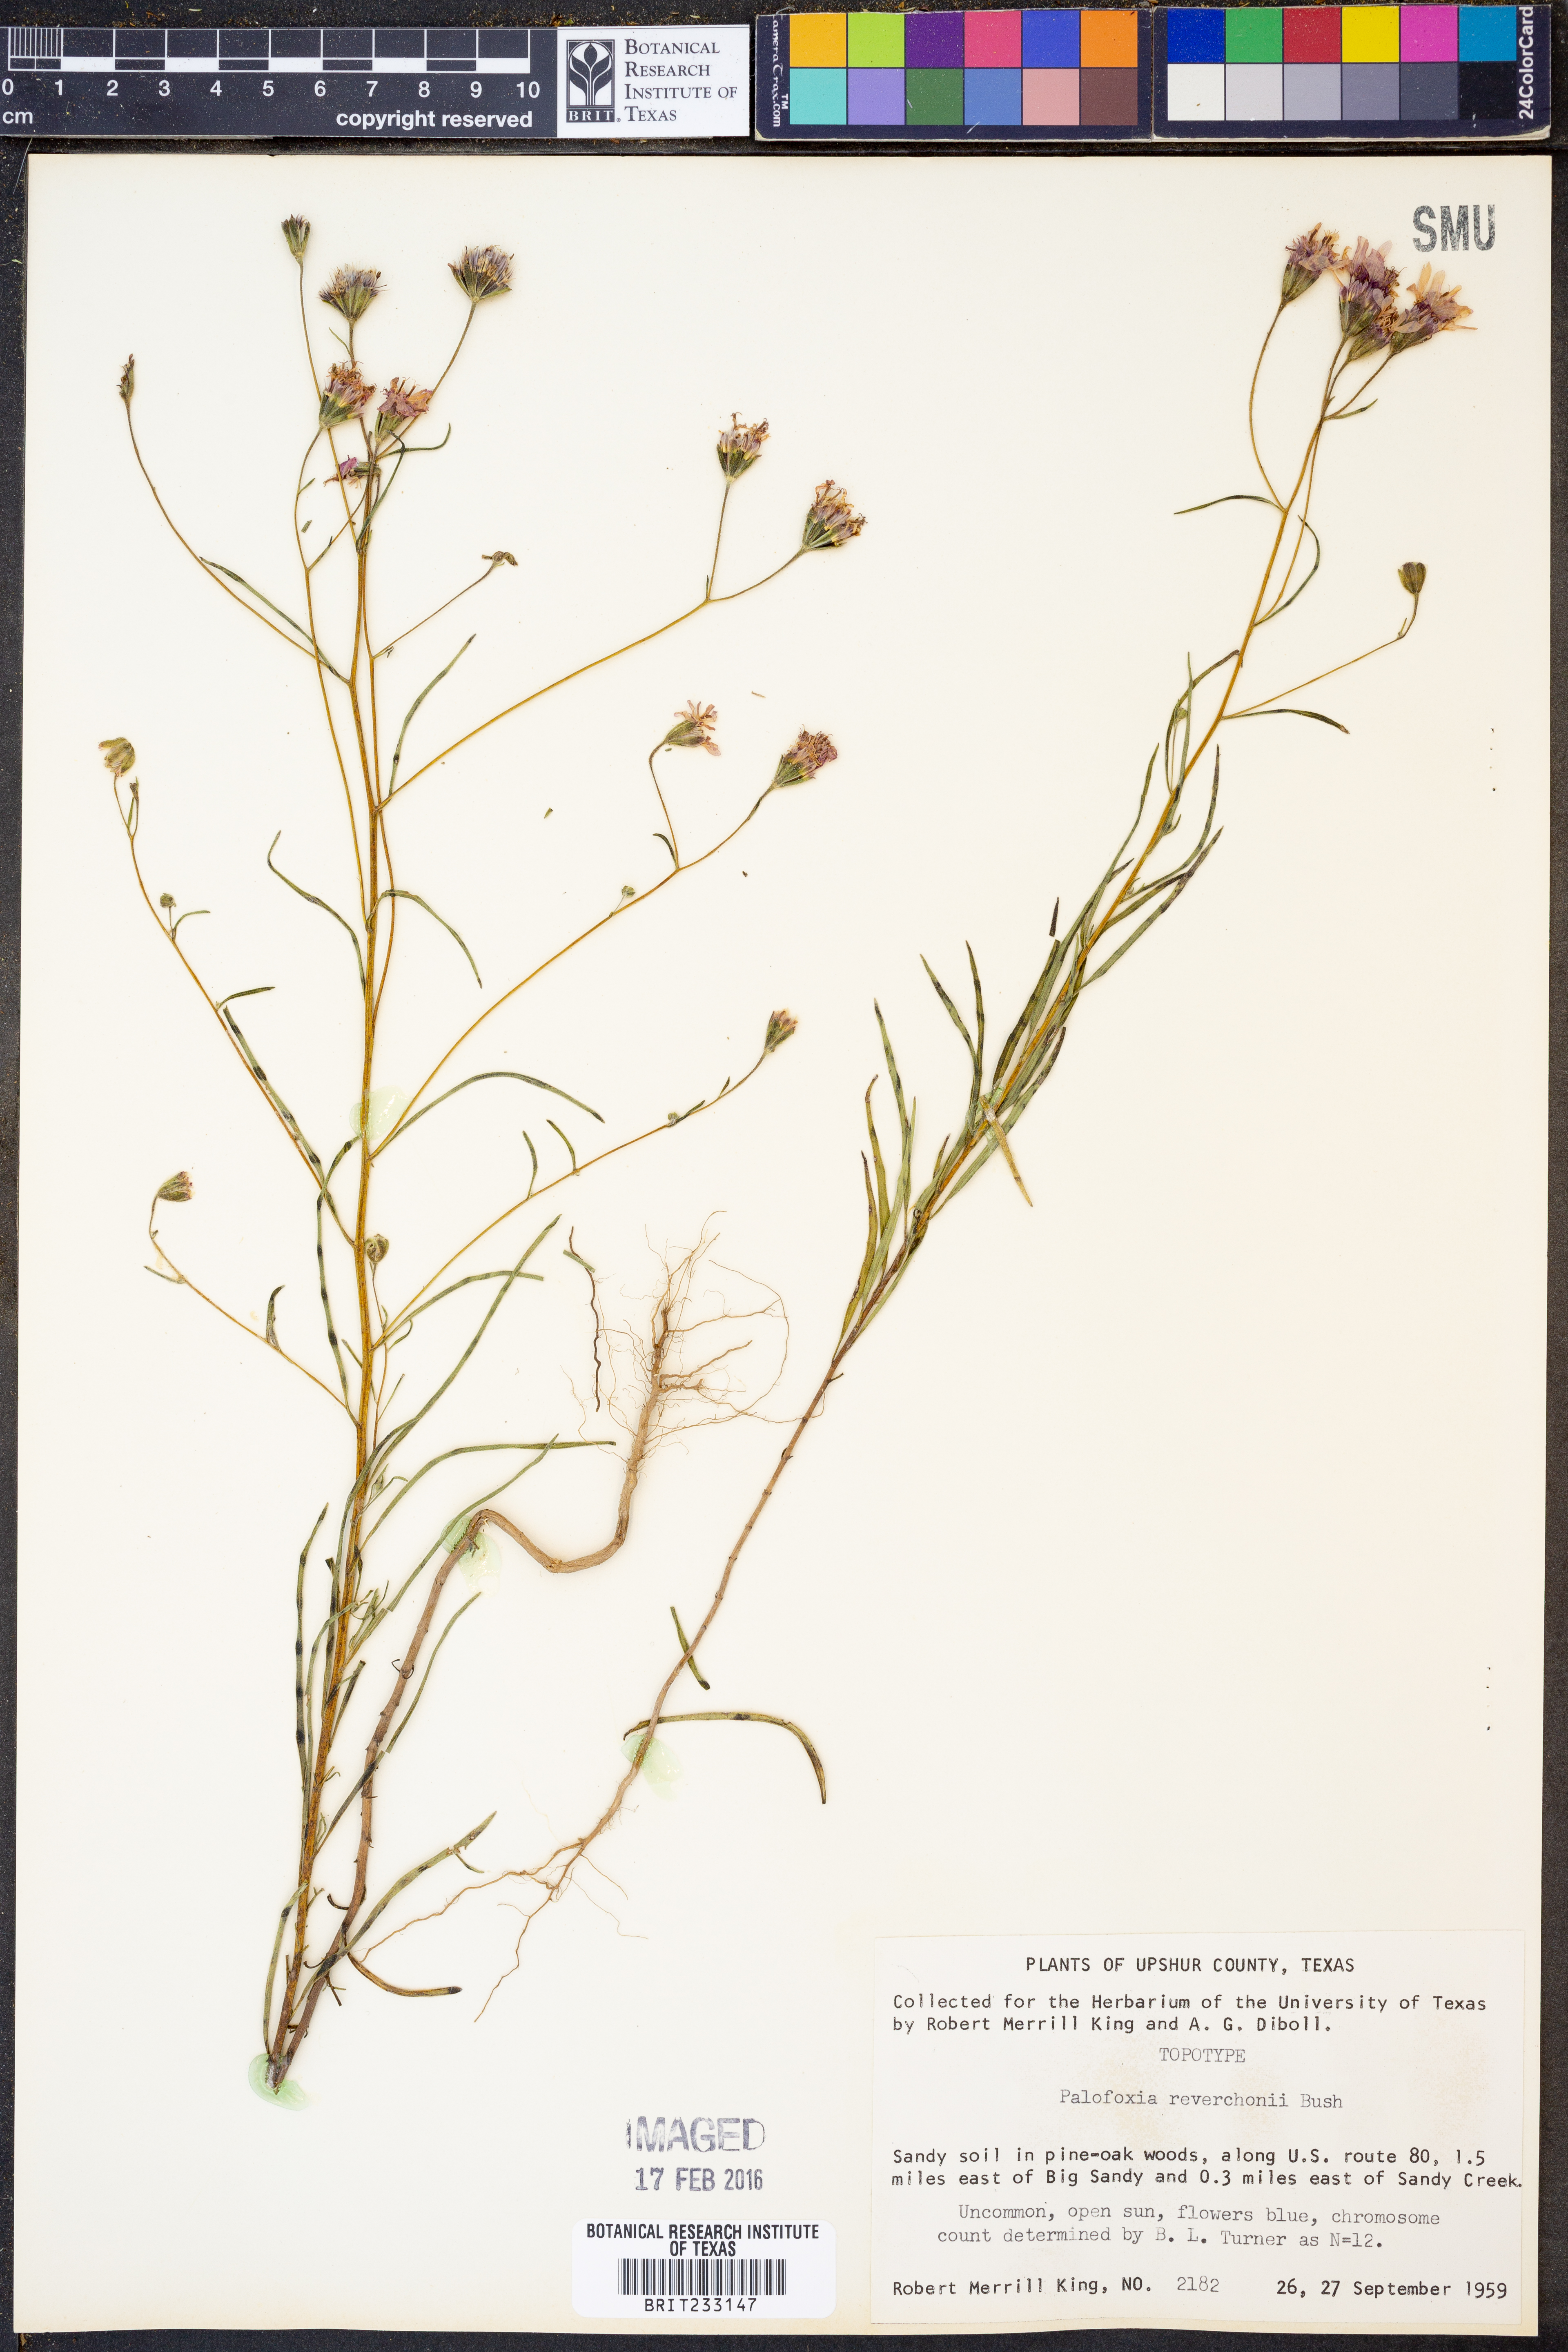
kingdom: Plantae
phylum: Tracheophyta
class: Magnoliopsida
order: Asterales
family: Asteraceae
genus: Palafoxia
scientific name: Palafoxia reverchonii
